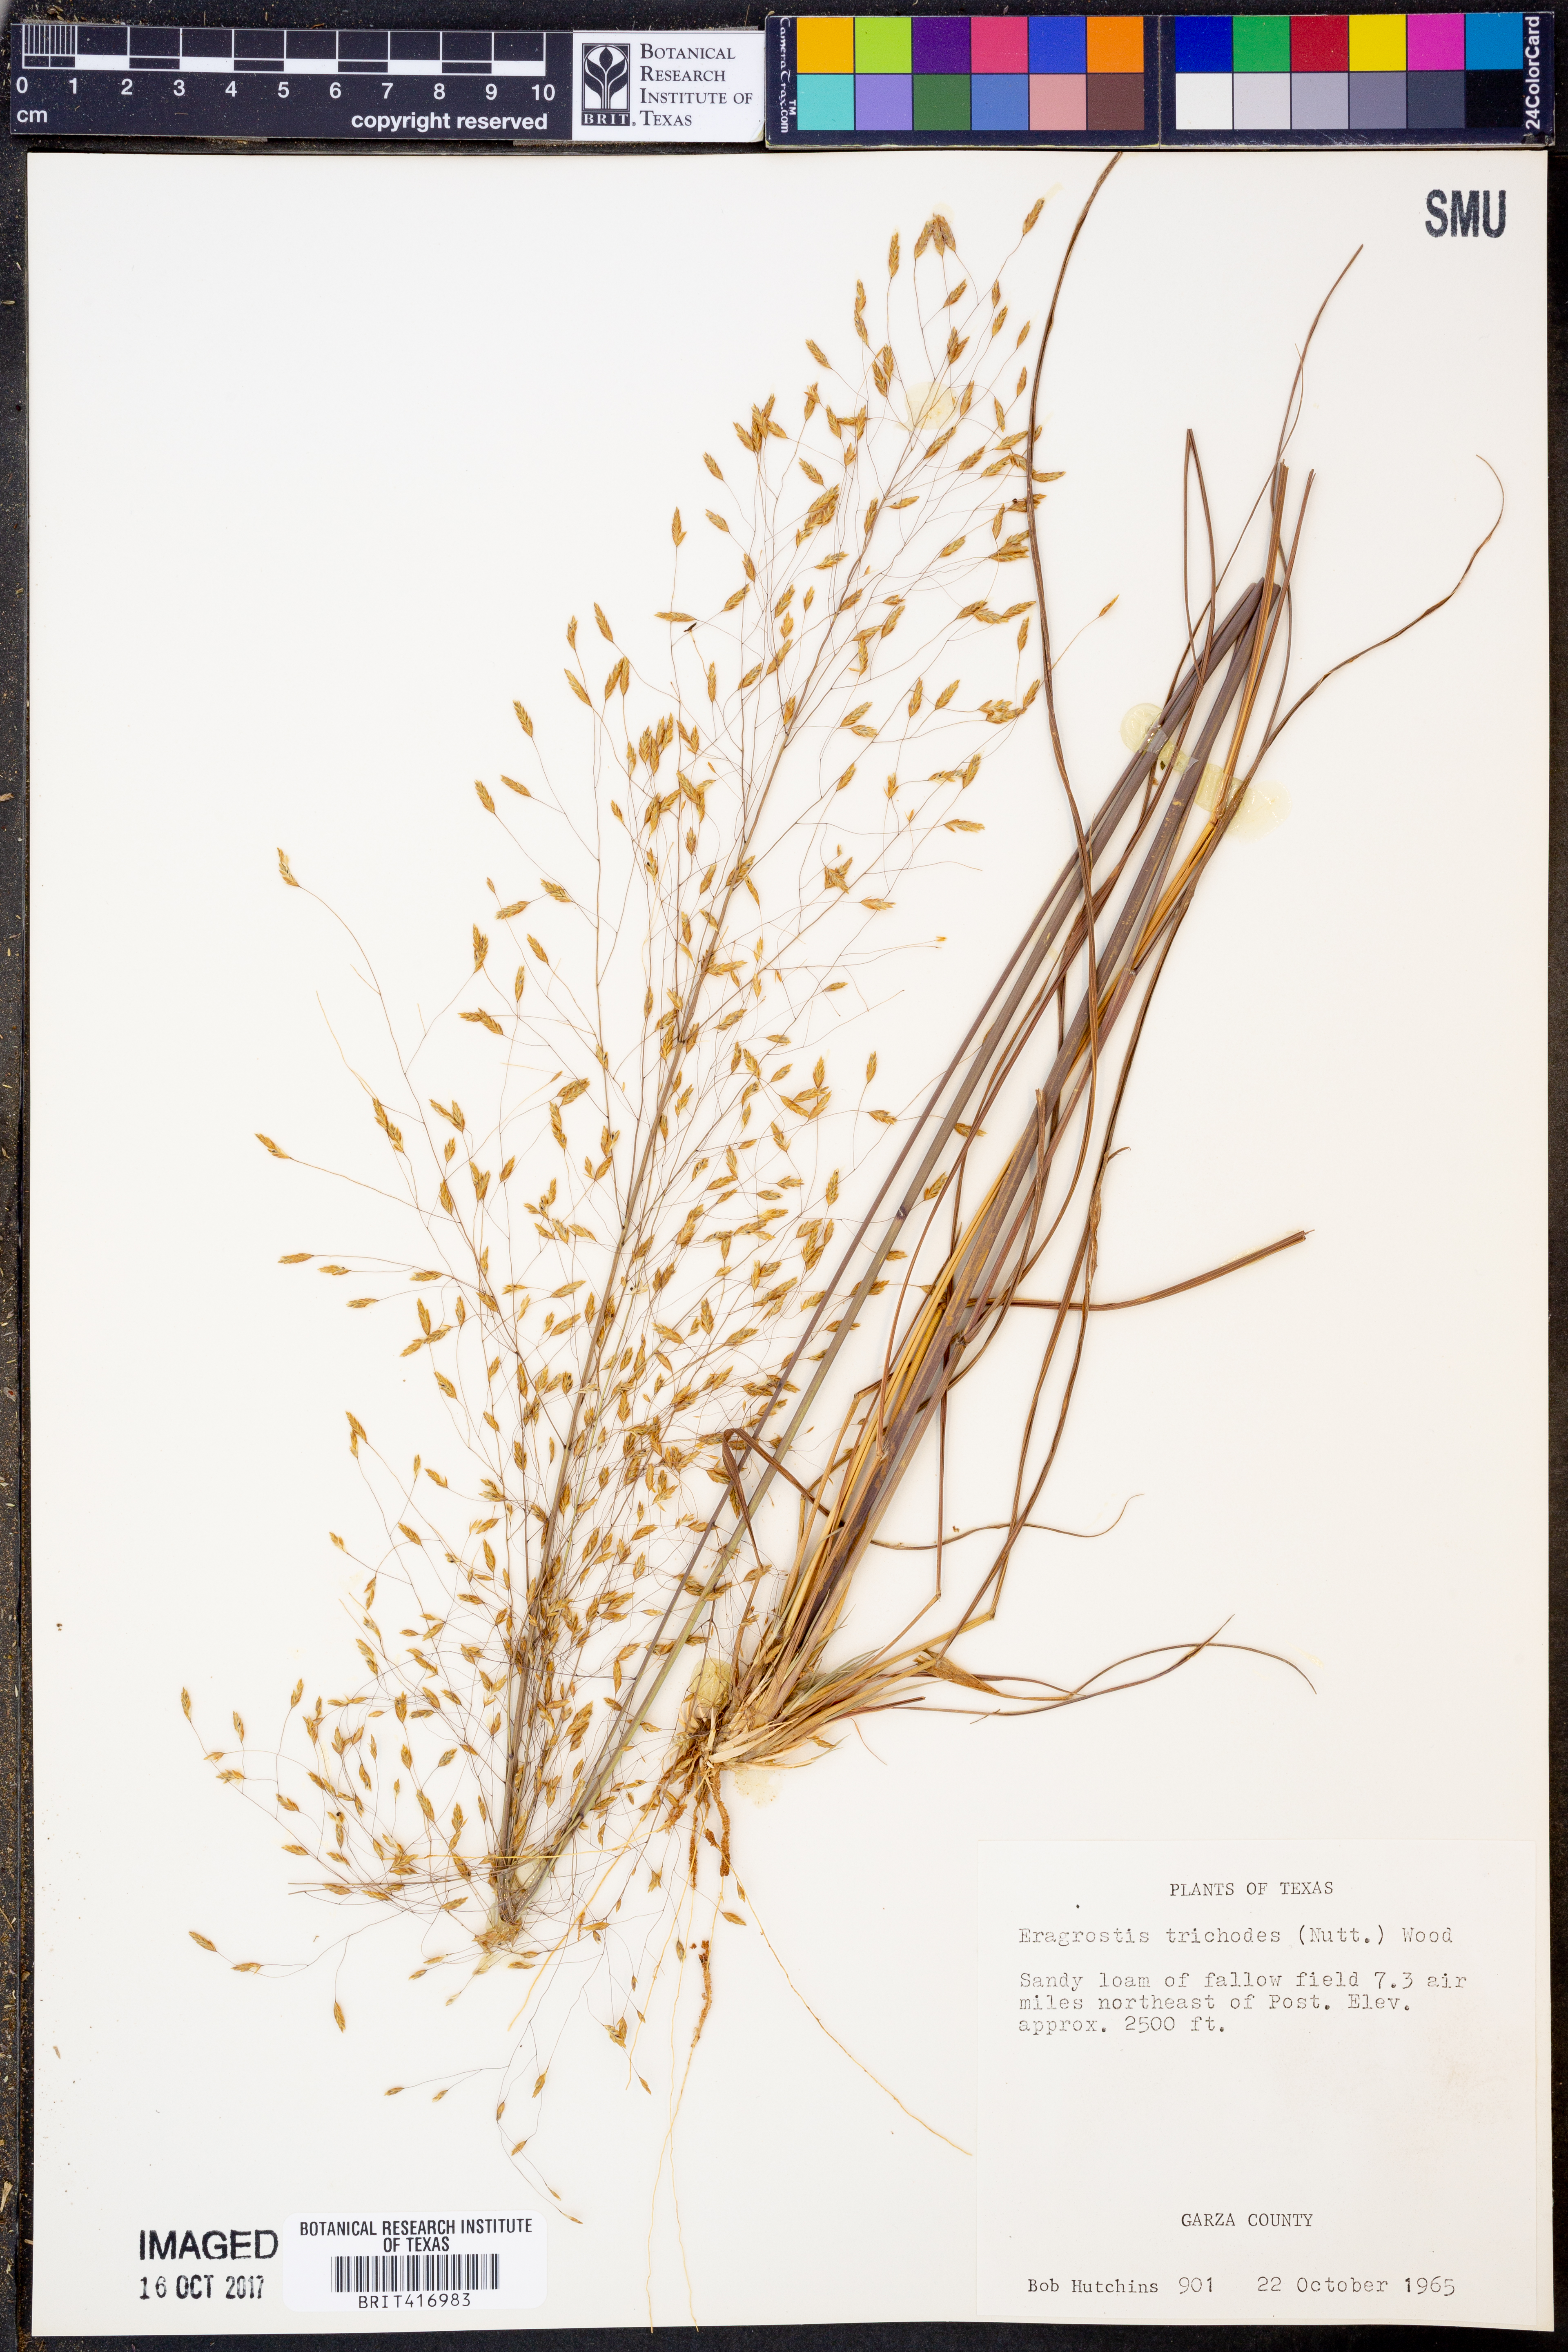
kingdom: Plantae
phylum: Tracheophyta
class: Liliopsida
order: Poales
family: Poaceae
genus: Eragrostis
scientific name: Eragrostis trichodes
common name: Sand love grass
